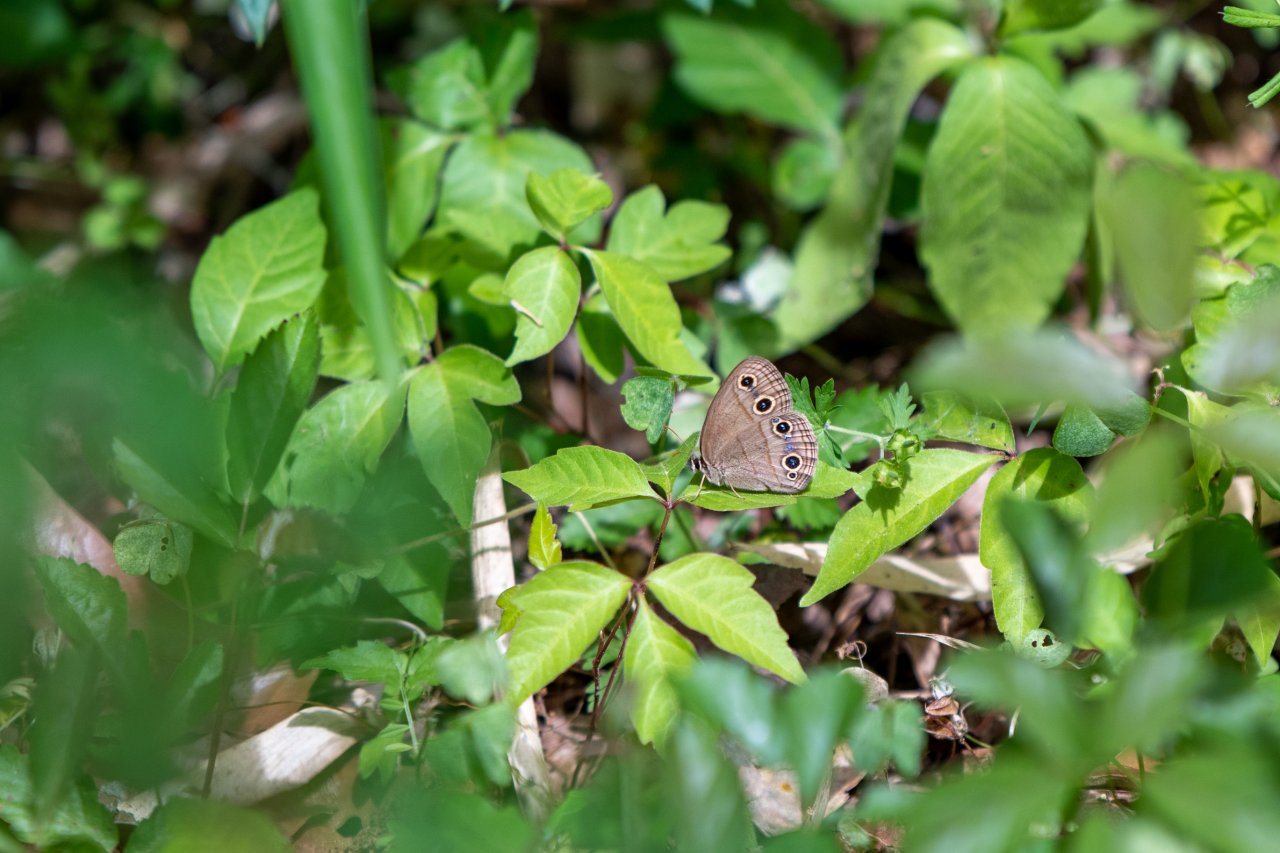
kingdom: Animalia
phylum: Arthropoda
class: Insecta
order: Lepidoptera
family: Nymphalidae
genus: Euptychia
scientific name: Euptychia cymela
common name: Little Wood Satyr
